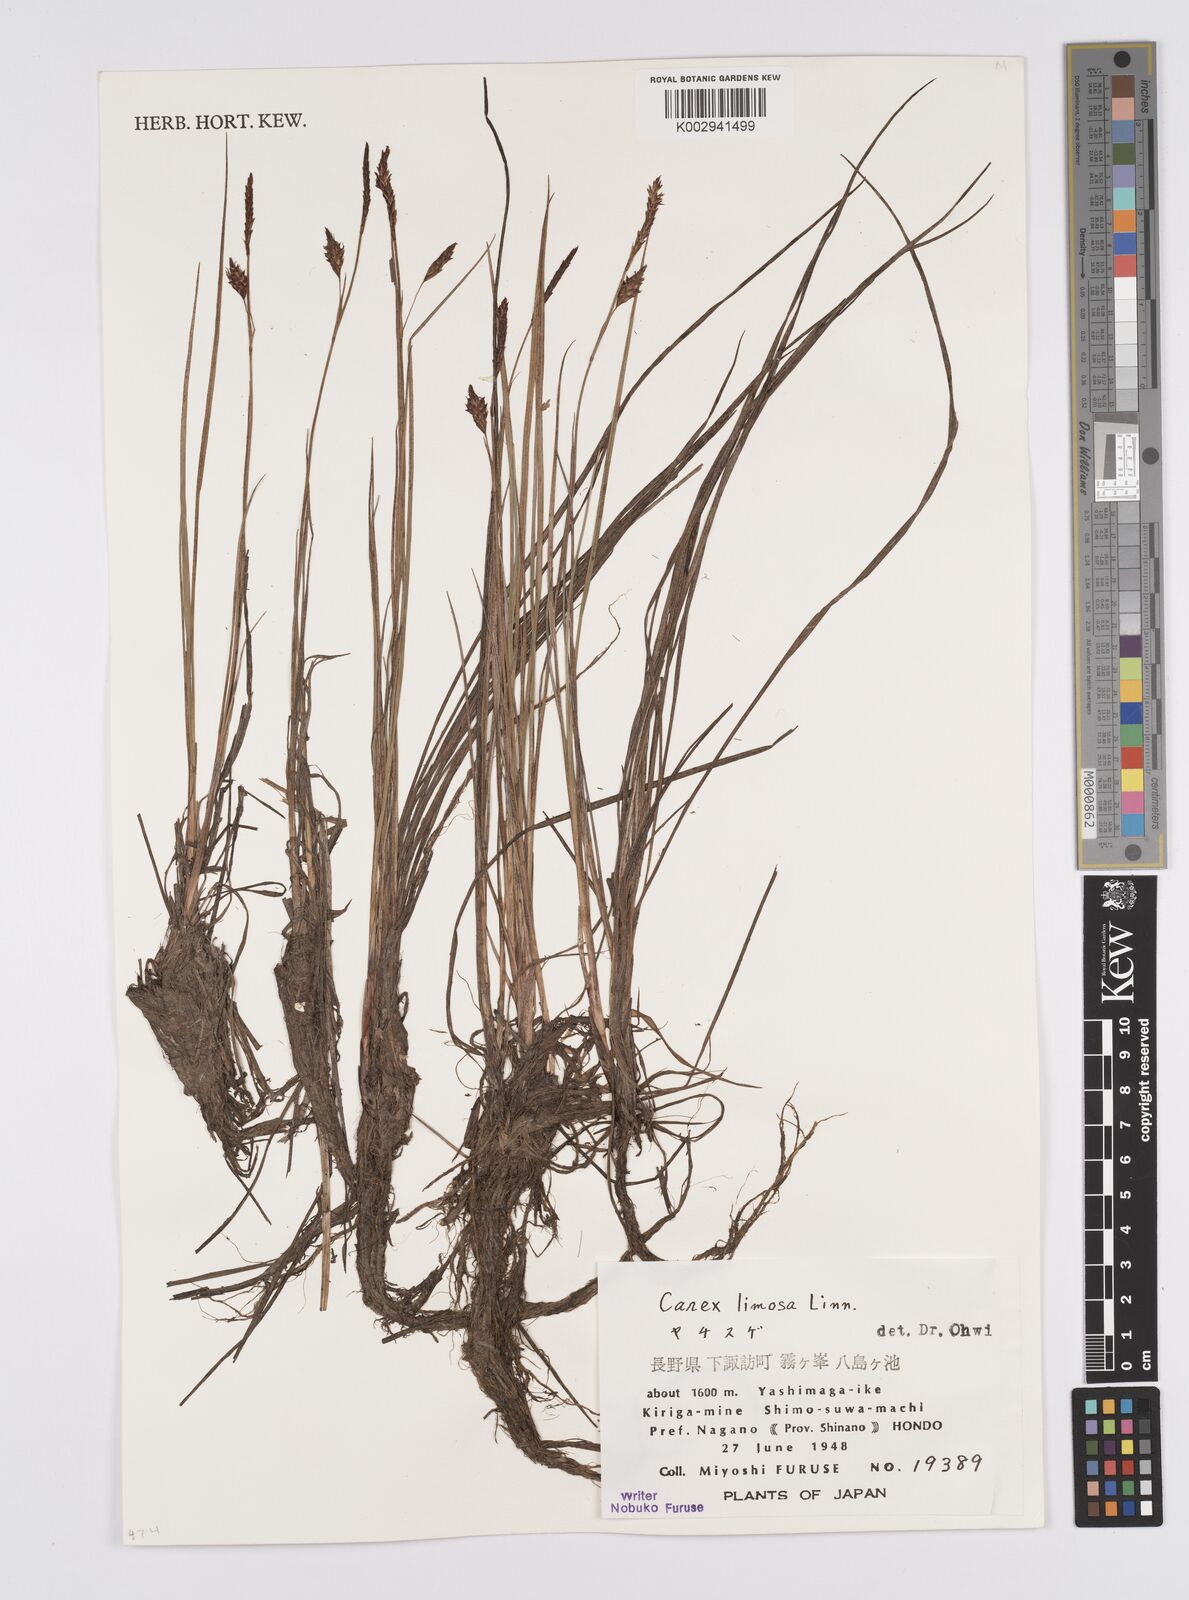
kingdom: Plantae
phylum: Tracheophyta
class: Liliopsida
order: Poales
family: Cyperaceae
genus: Carex
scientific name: Carex limosa
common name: Bog sedge
